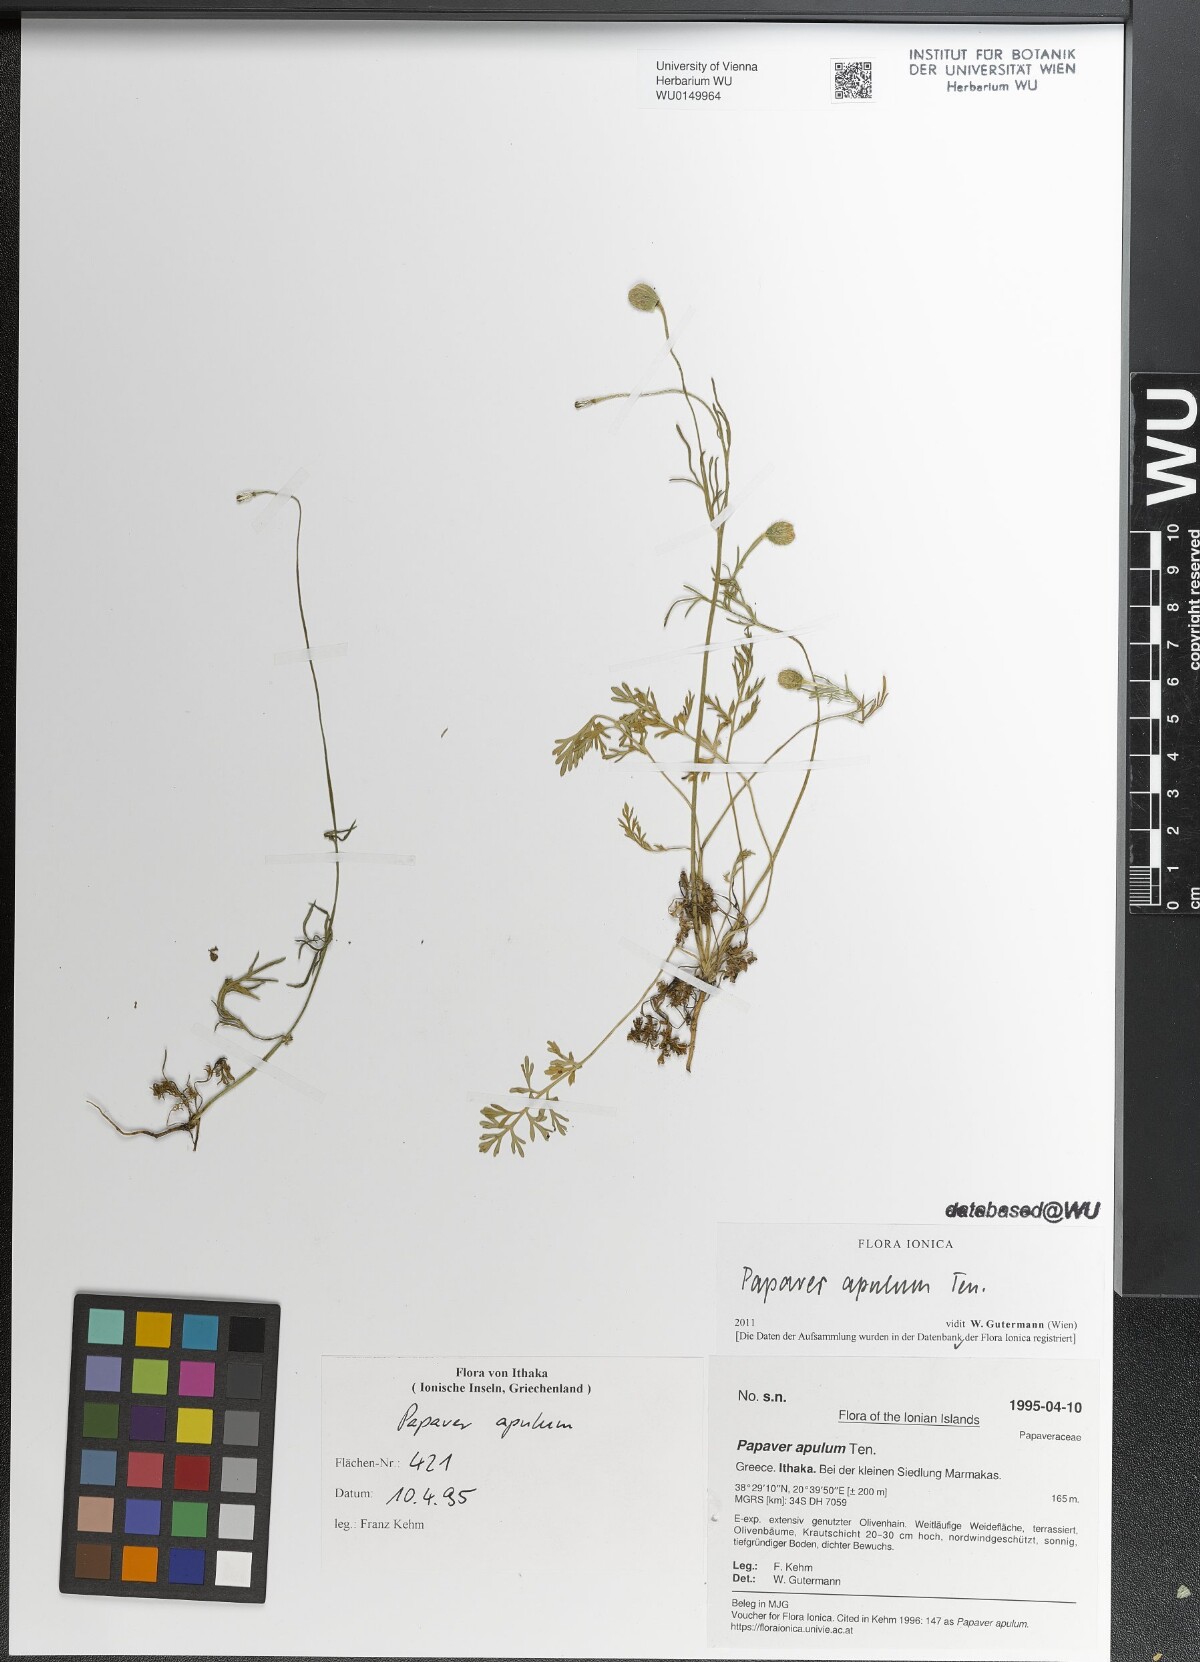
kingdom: Plantae
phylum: Tracheophyta
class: Magnoliopsida
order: Ranunculales
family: Papaveraceae
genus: Roemeria
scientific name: Roemeria apula
